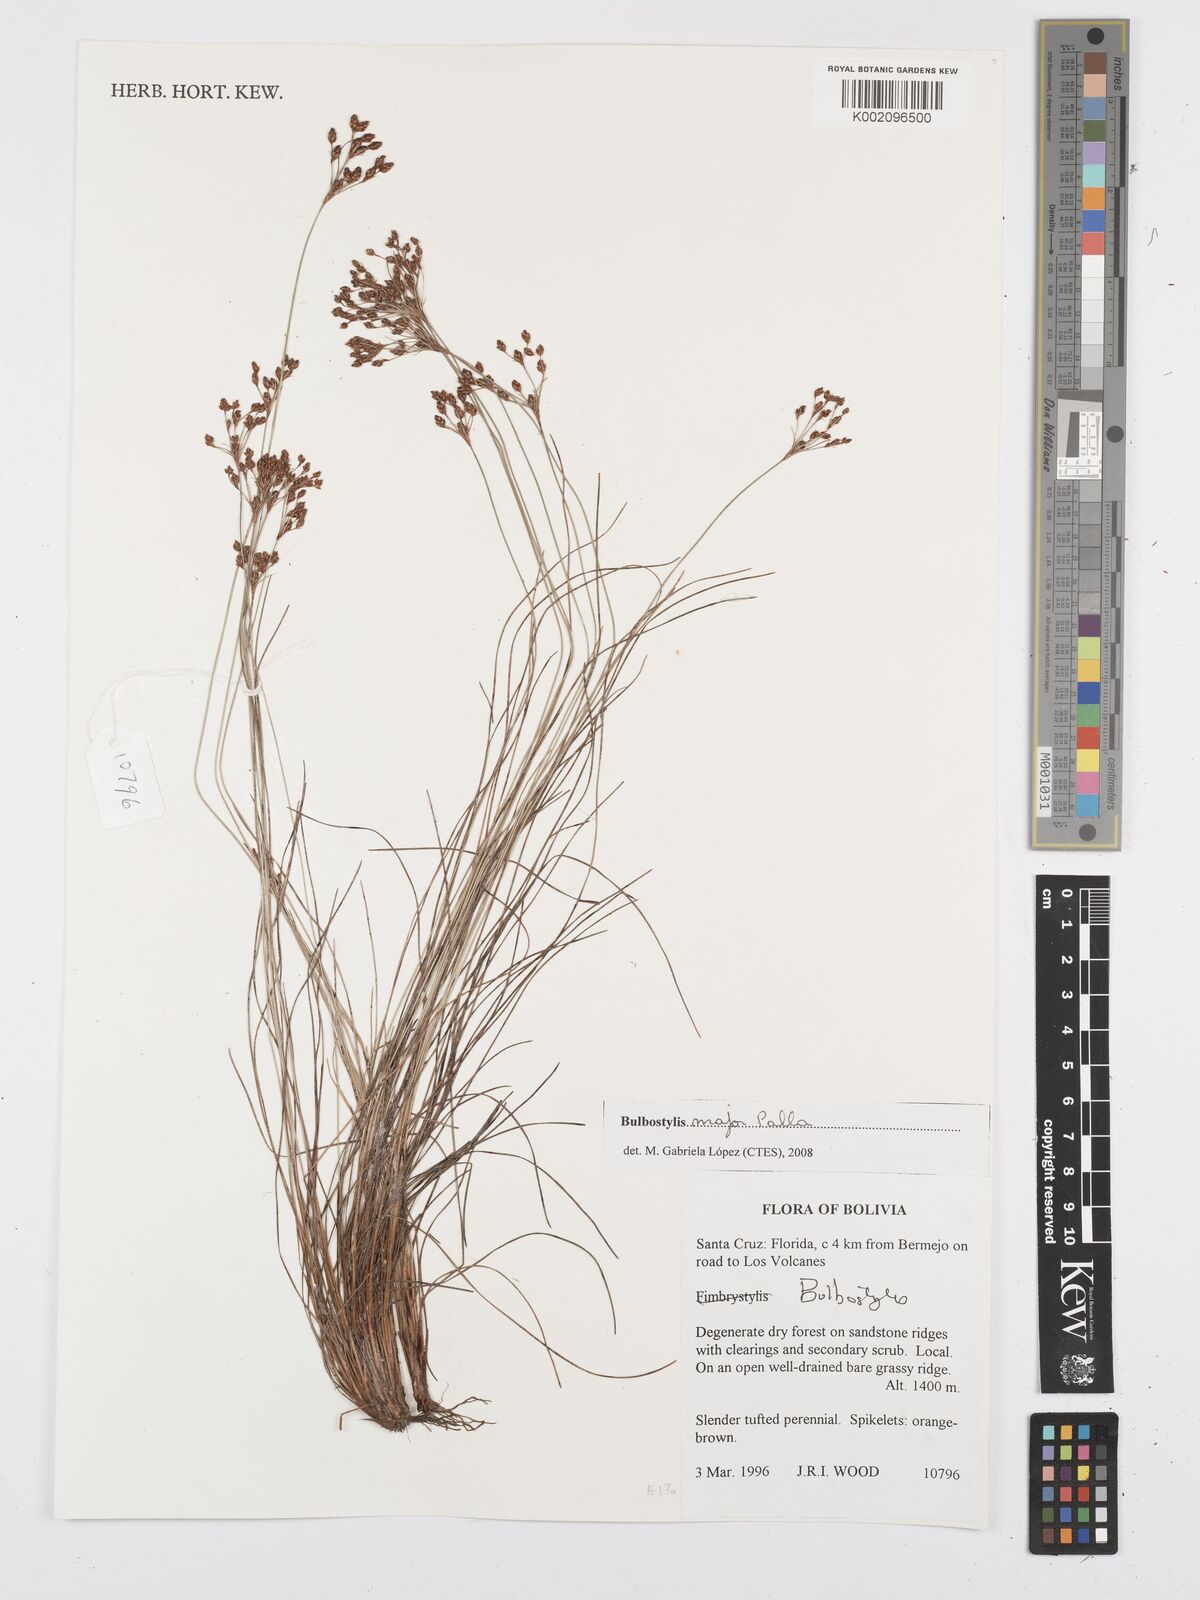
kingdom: Plantae
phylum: Tracheophyta
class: Liliopsida
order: Poales
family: Cyperaceae
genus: Bulbostylis
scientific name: Bulbostylis major
